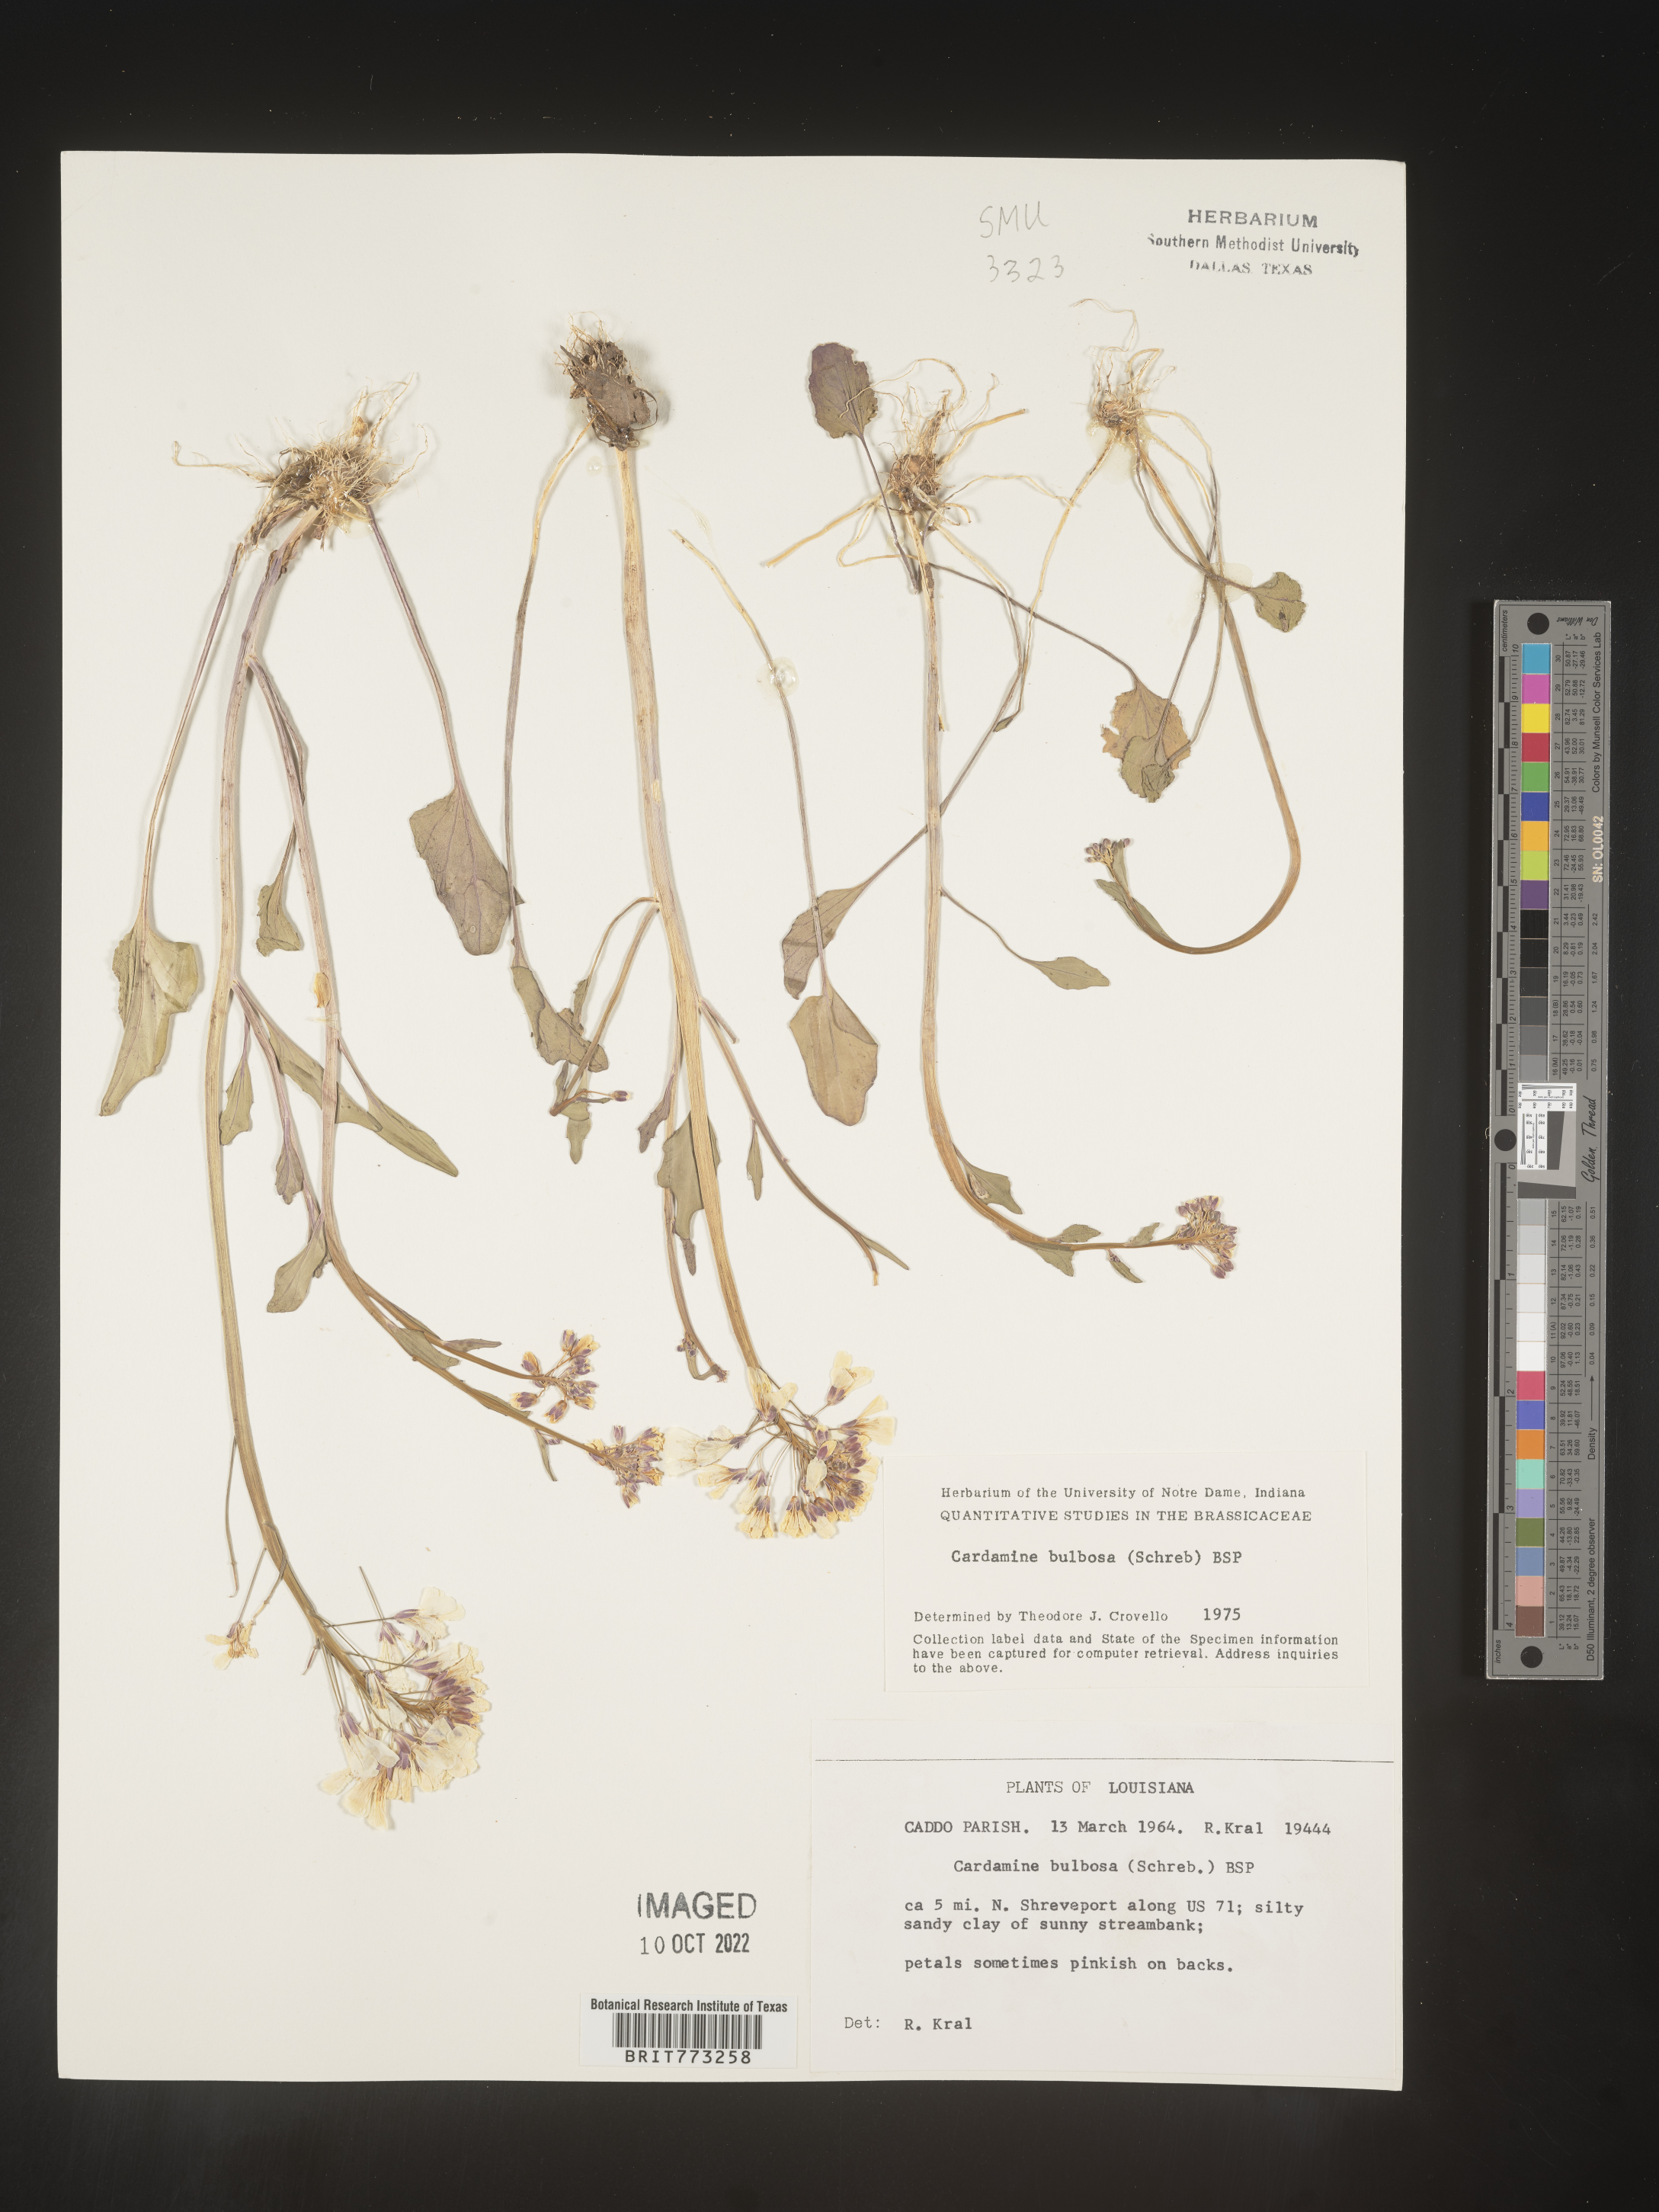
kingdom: Plantae
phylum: Tracheophyta
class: Magnoliopsida
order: Brassicales
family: Brassicaceae
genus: Cardamine
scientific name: Cardamine bulbosa
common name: Spring cress
